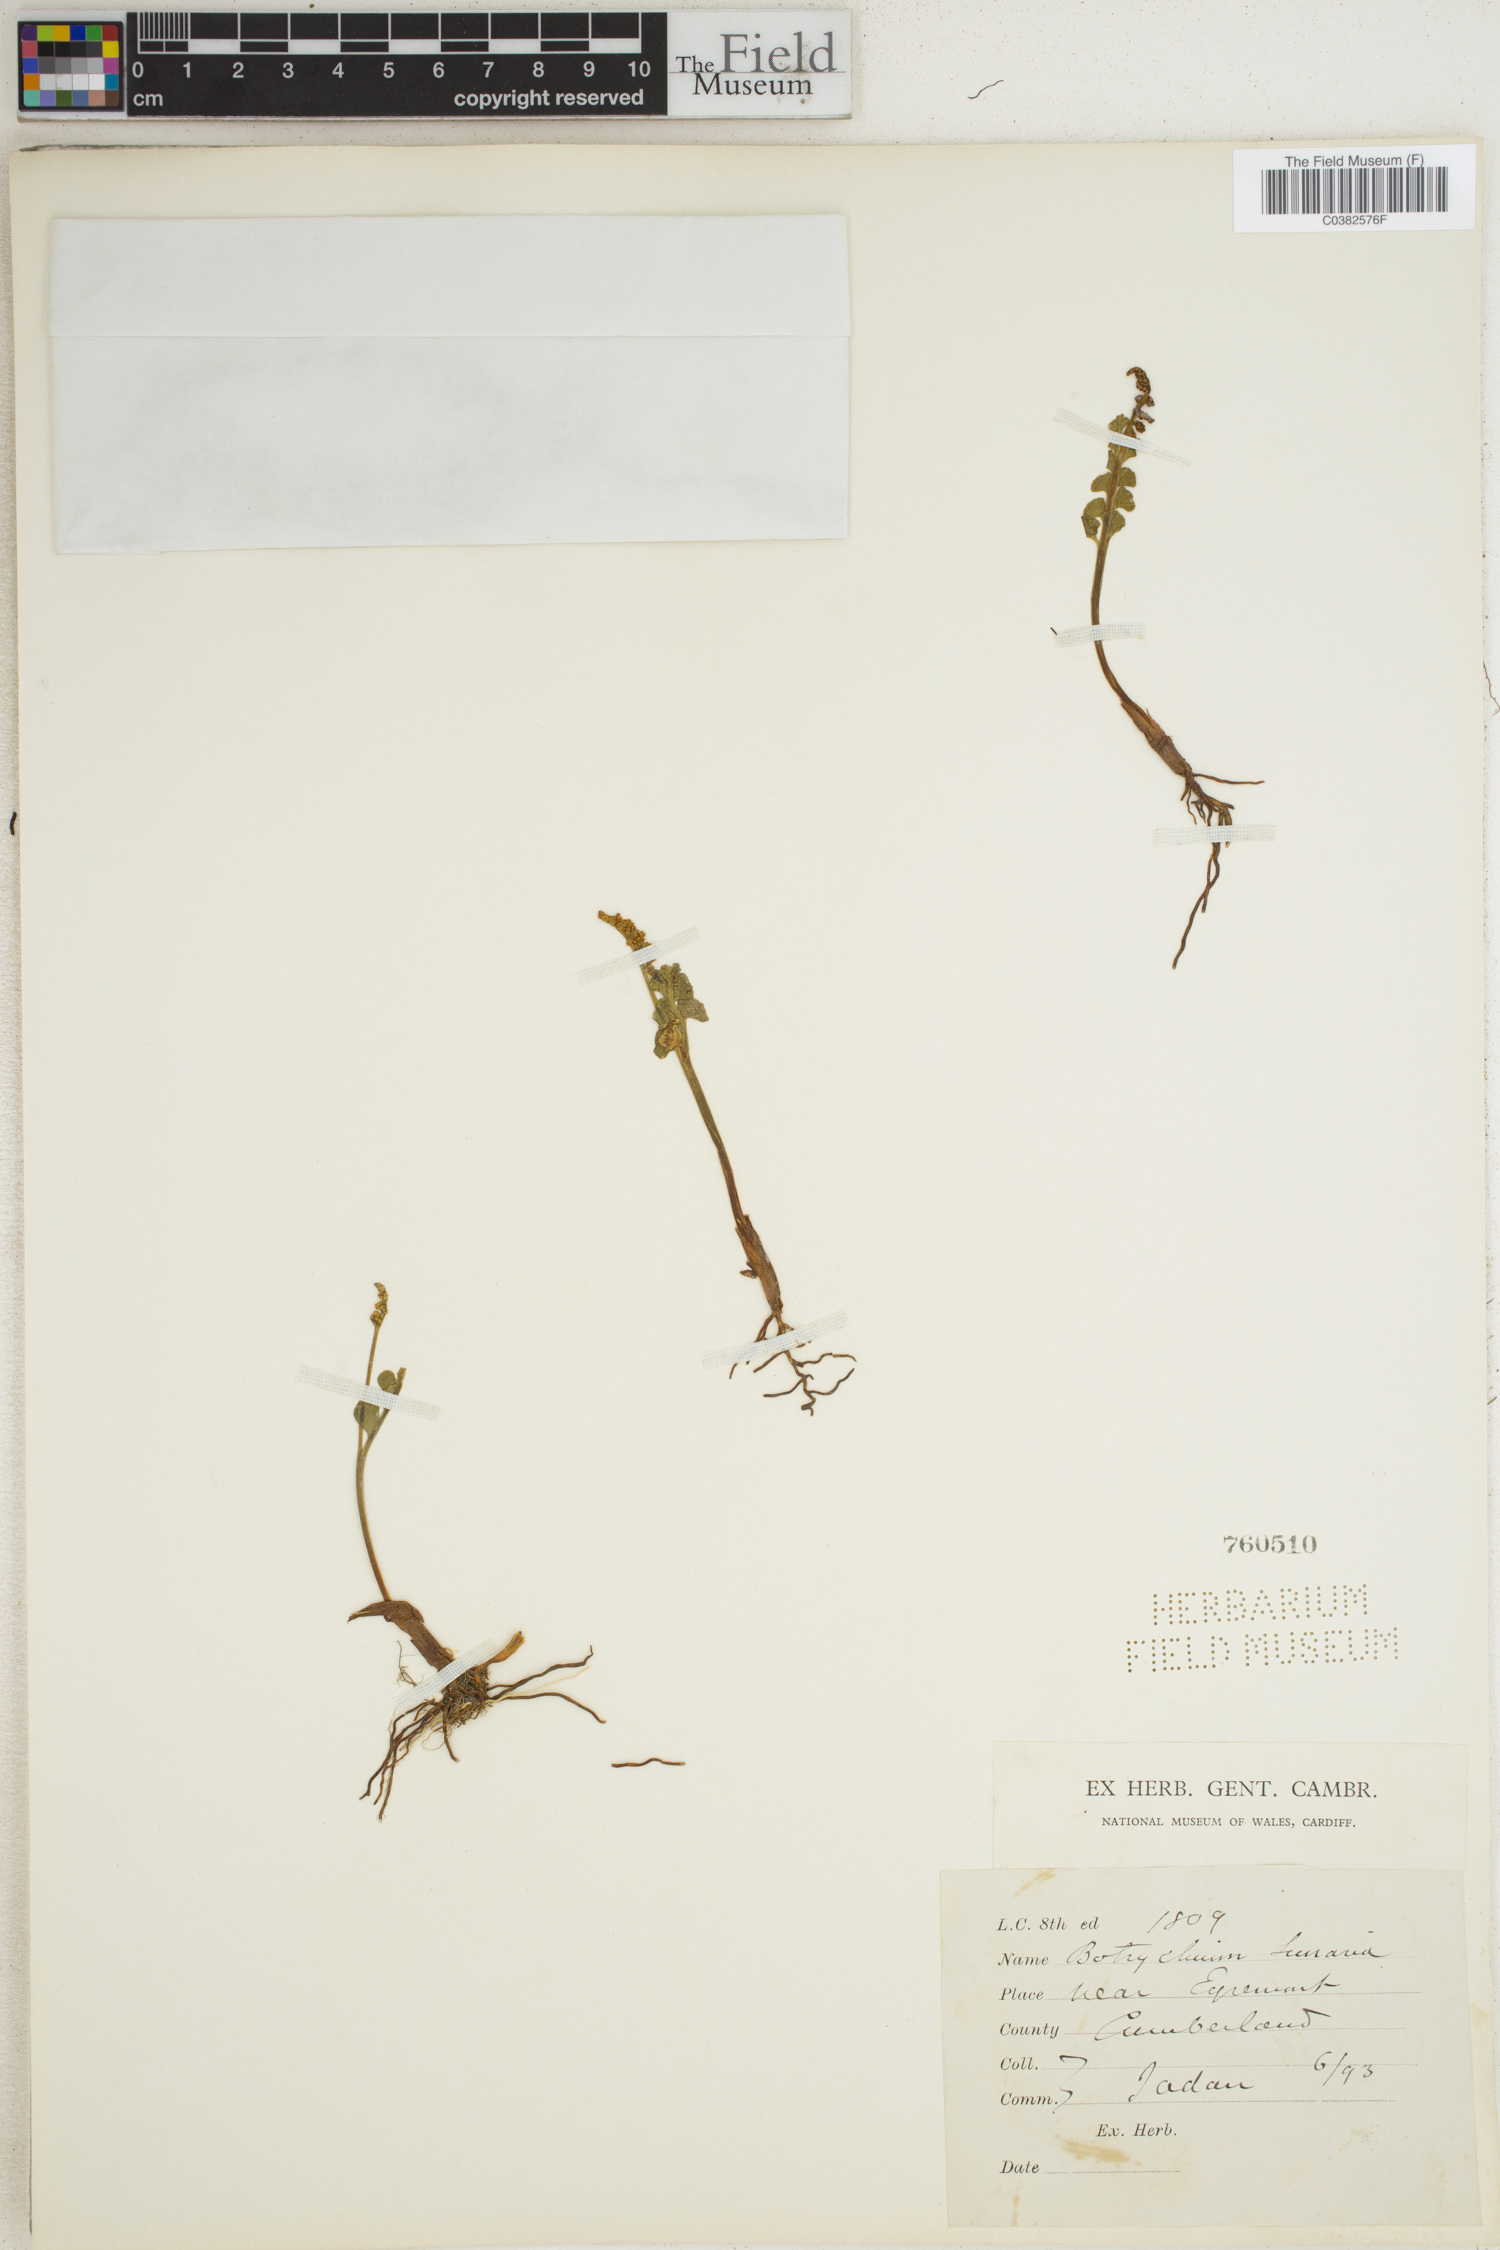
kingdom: Plantae
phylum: Tracheophyta
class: Polypodiopsida
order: Ophioglossales
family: Ophioglossaceae
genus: Botrychium
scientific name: Botrychium lunaria
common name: Moonwort
